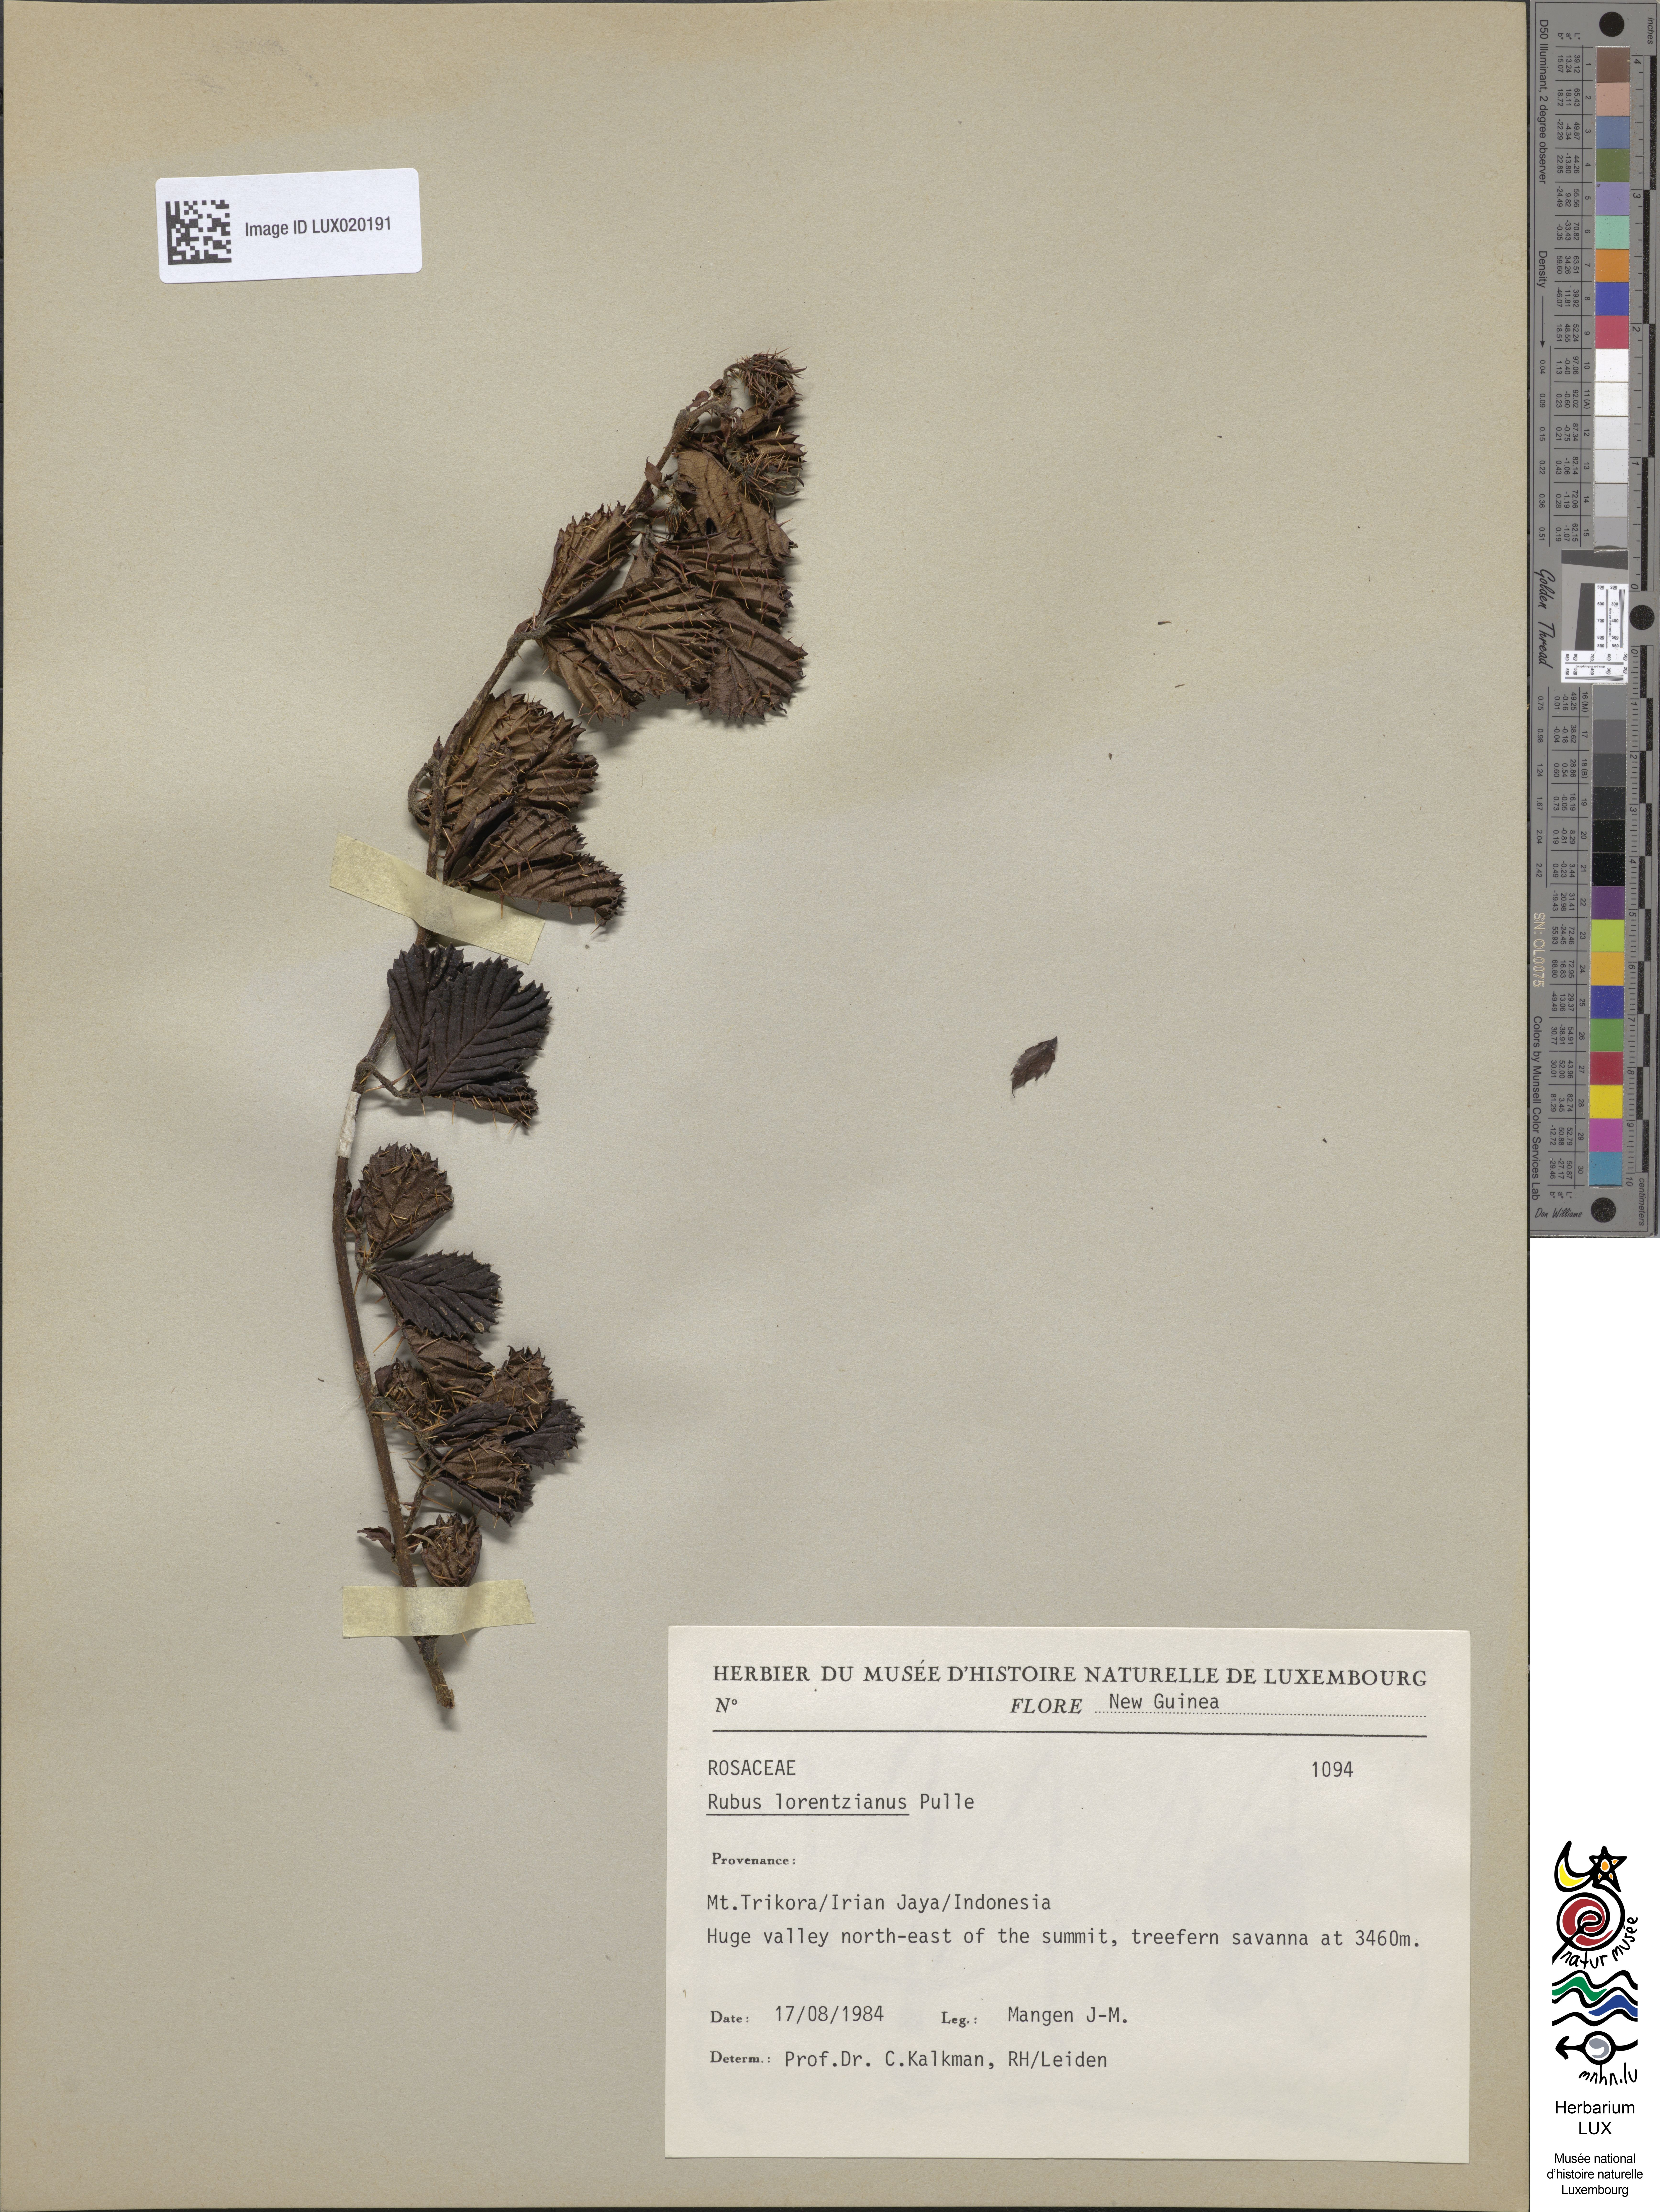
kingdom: Plantae
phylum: Tracheophyta
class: Magnoliopsida
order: Rosales
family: Rosaceae
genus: Rubus
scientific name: Rubus lorentzianus
